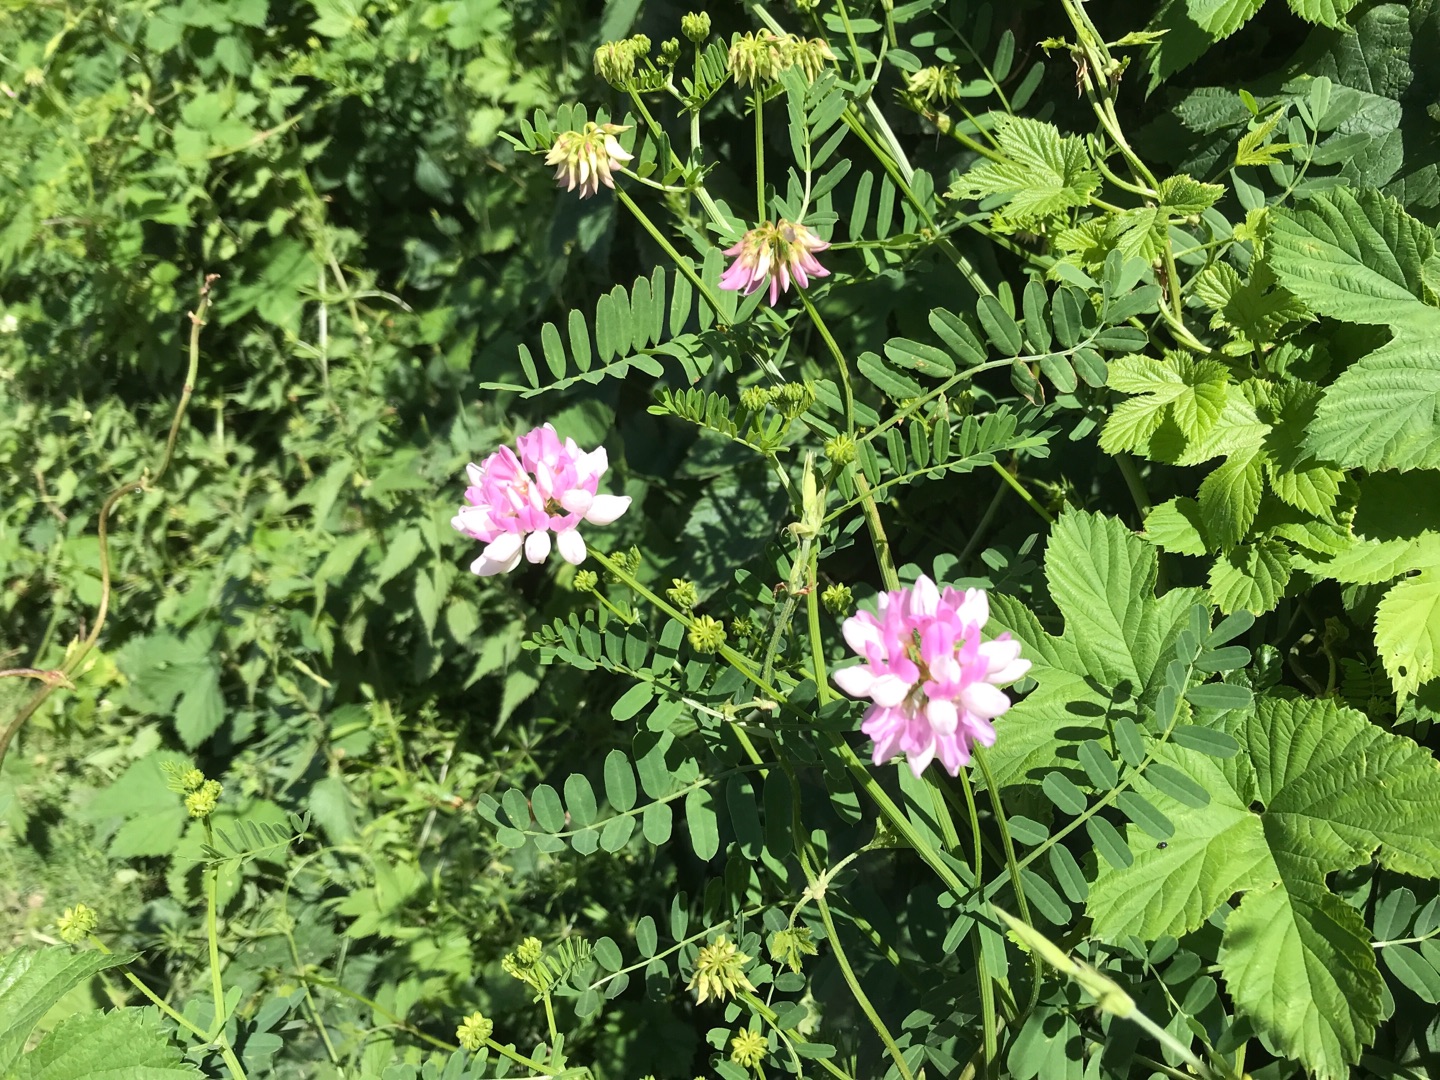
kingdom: Plantae
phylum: Tracheophyta
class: Magnoliopsida
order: Fabales
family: Fabaceae
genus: Coronilla
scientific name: Coronilla varia
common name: Giftig kronvikke
